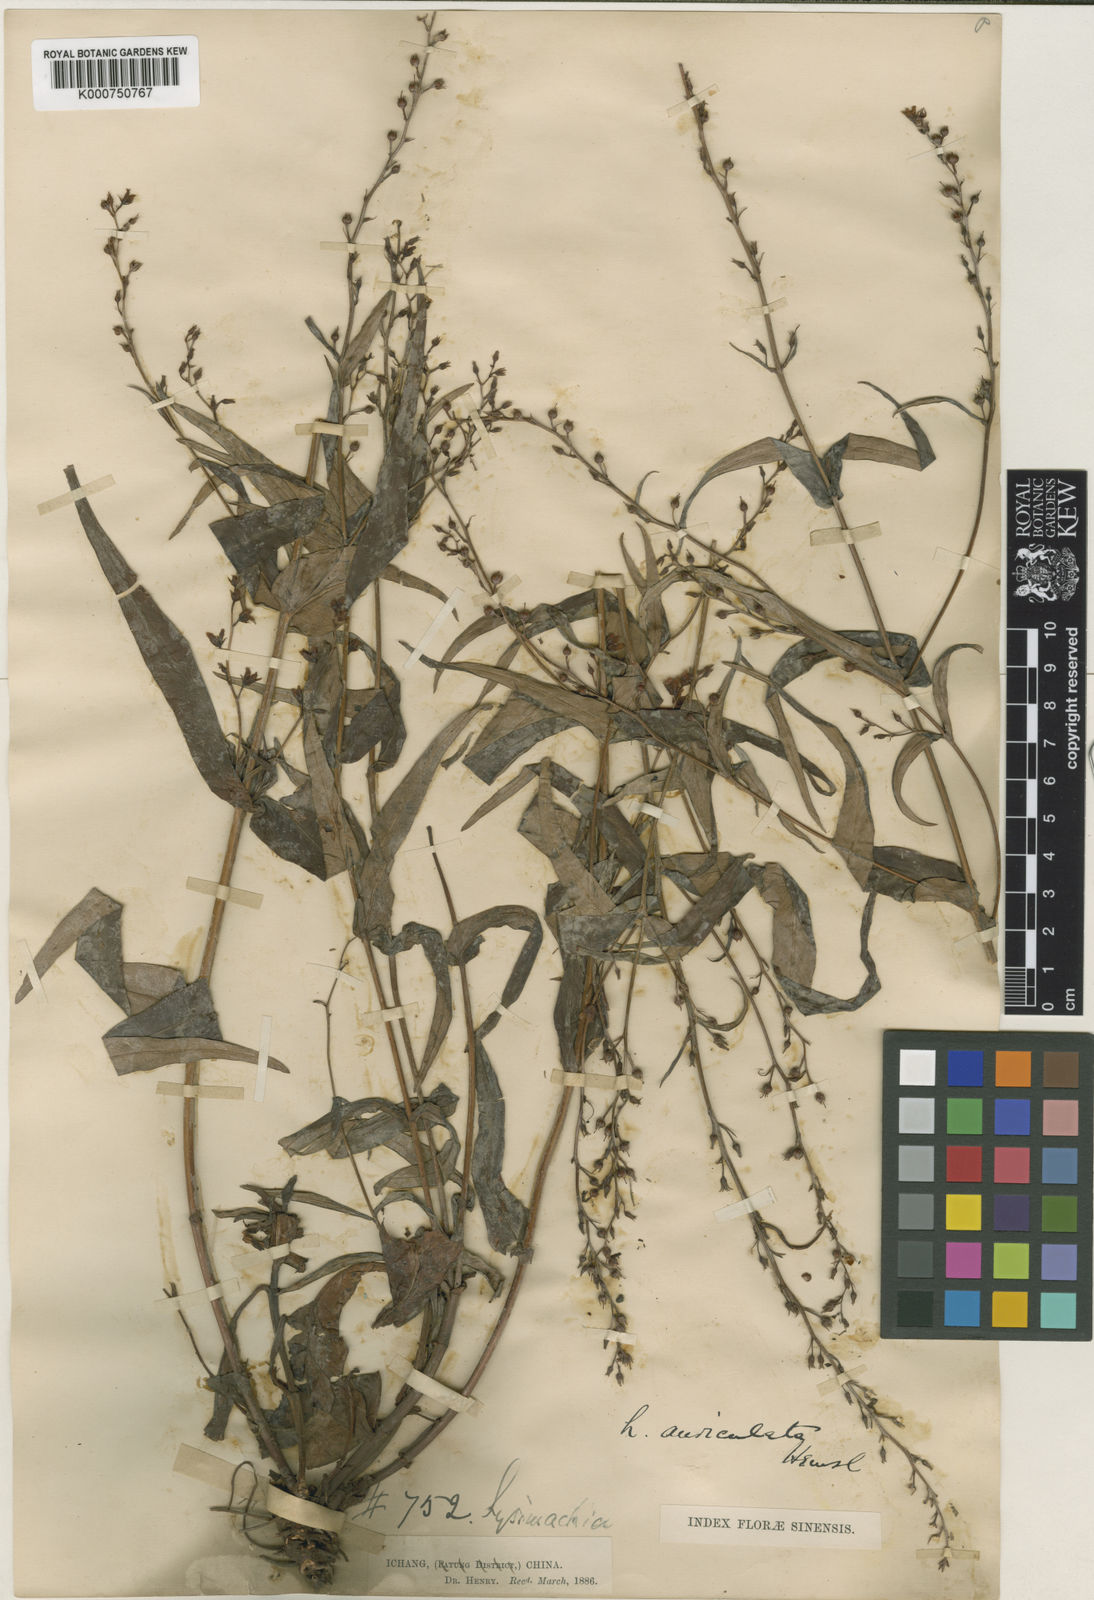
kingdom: Plantae
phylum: Tracheophyta
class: Magnoliopsida
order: Ericales
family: Primulaceae
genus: Lysimachia
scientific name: Lysimachia auriculata
